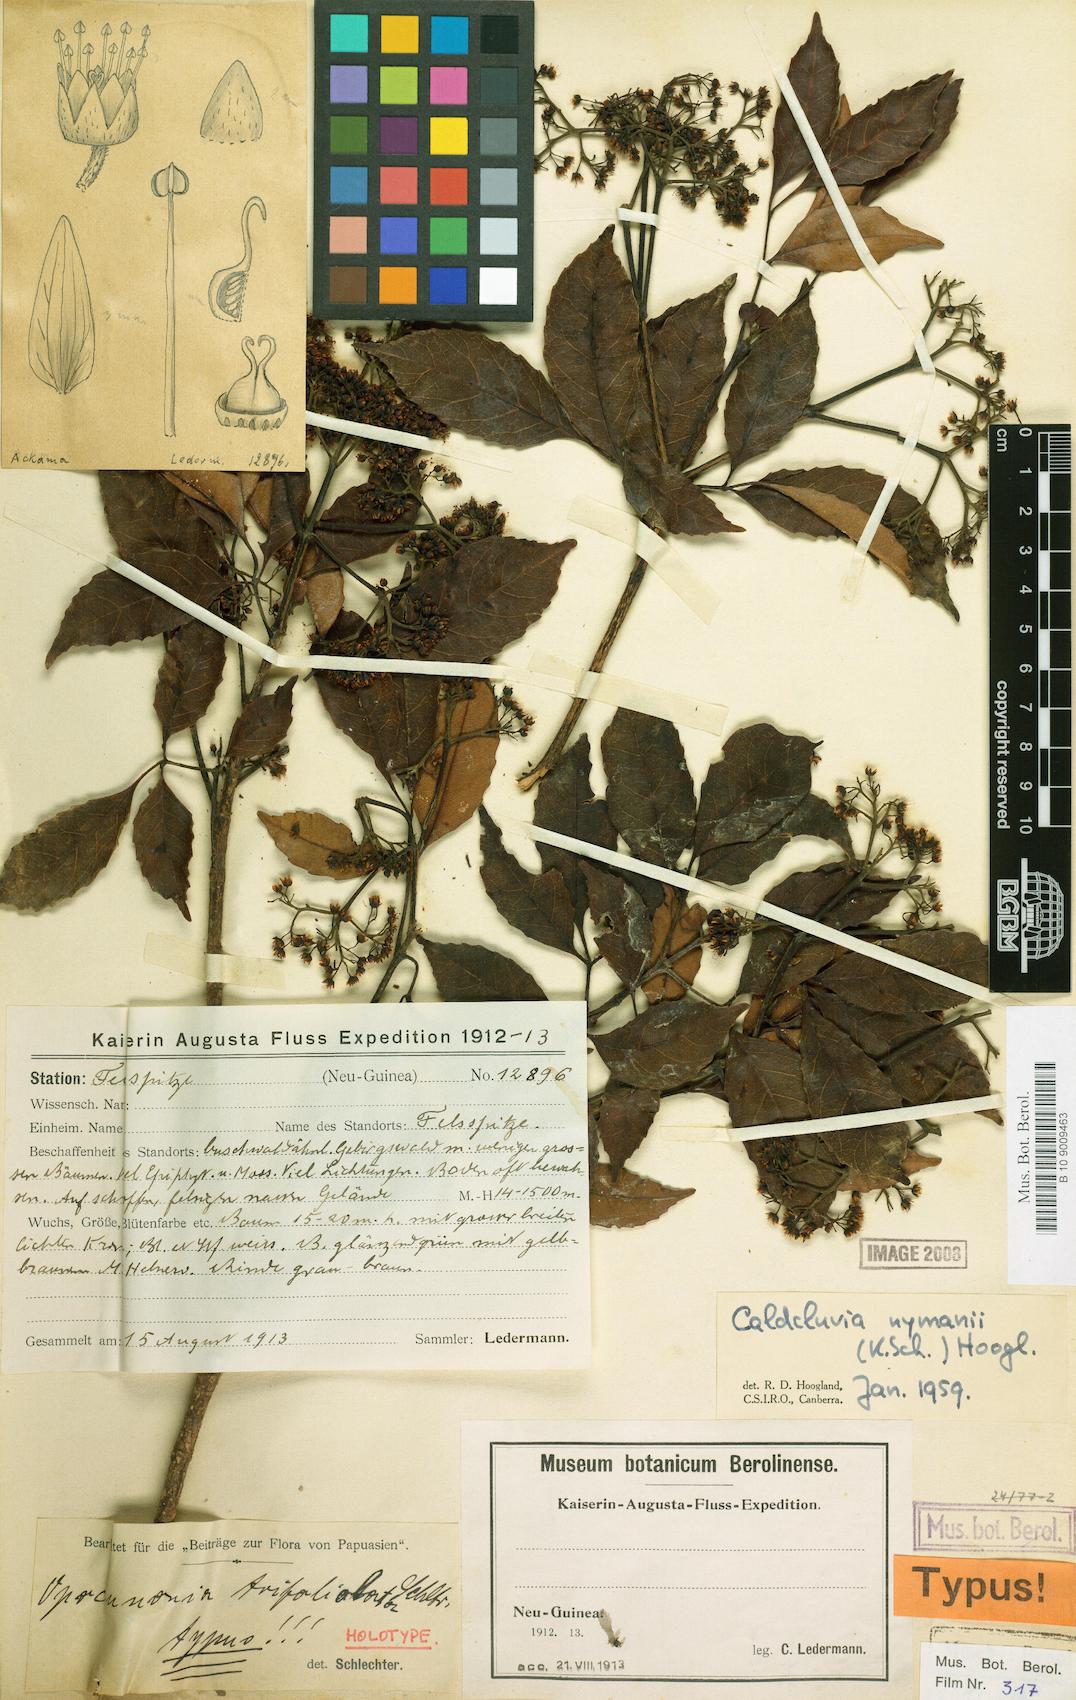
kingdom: Plantae
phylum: Tracheophyta
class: Magnoliopsida
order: Oxalidales
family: Cunoniaceae
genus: Opocunonia
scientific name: Opocunonia nymanii
